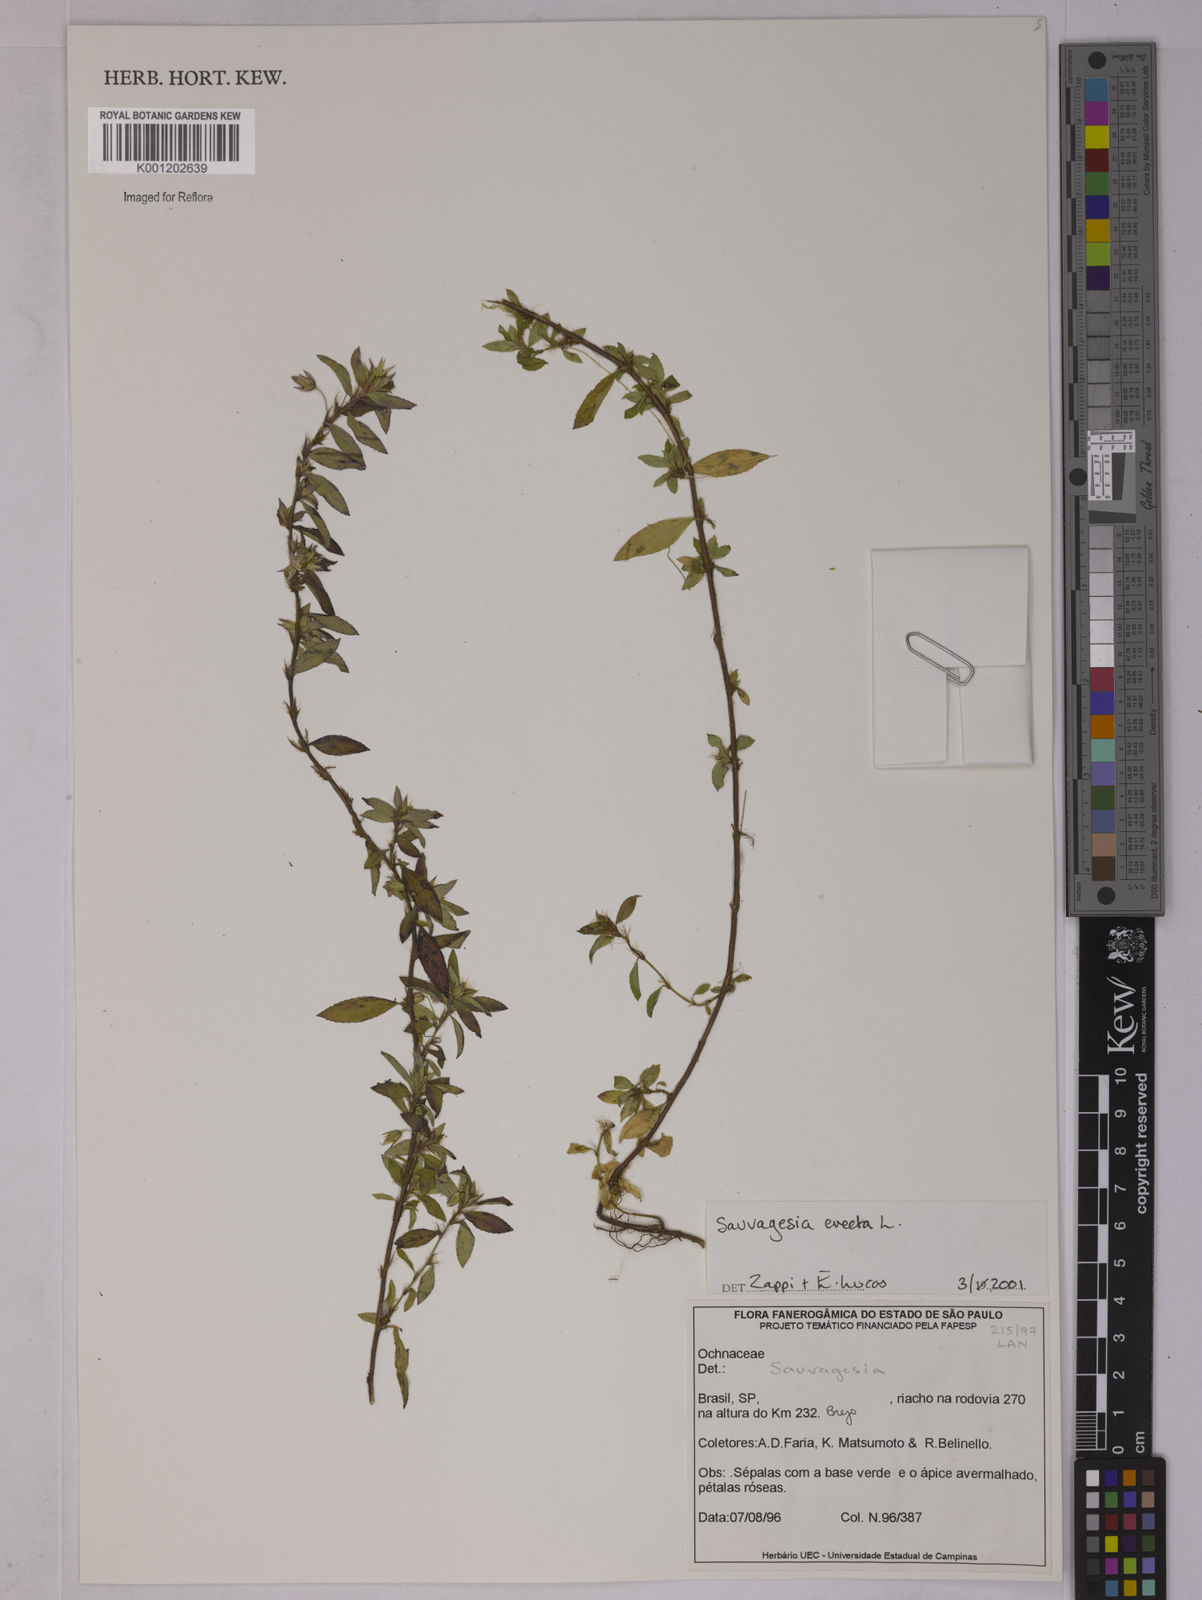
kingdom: Plantae
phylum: Tracheophyta
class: Magnoliopsida
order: Malpighiales
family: Ochnaceae
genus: Sauvagesia
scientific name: Sauvagesia erecta
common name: Creole tea
